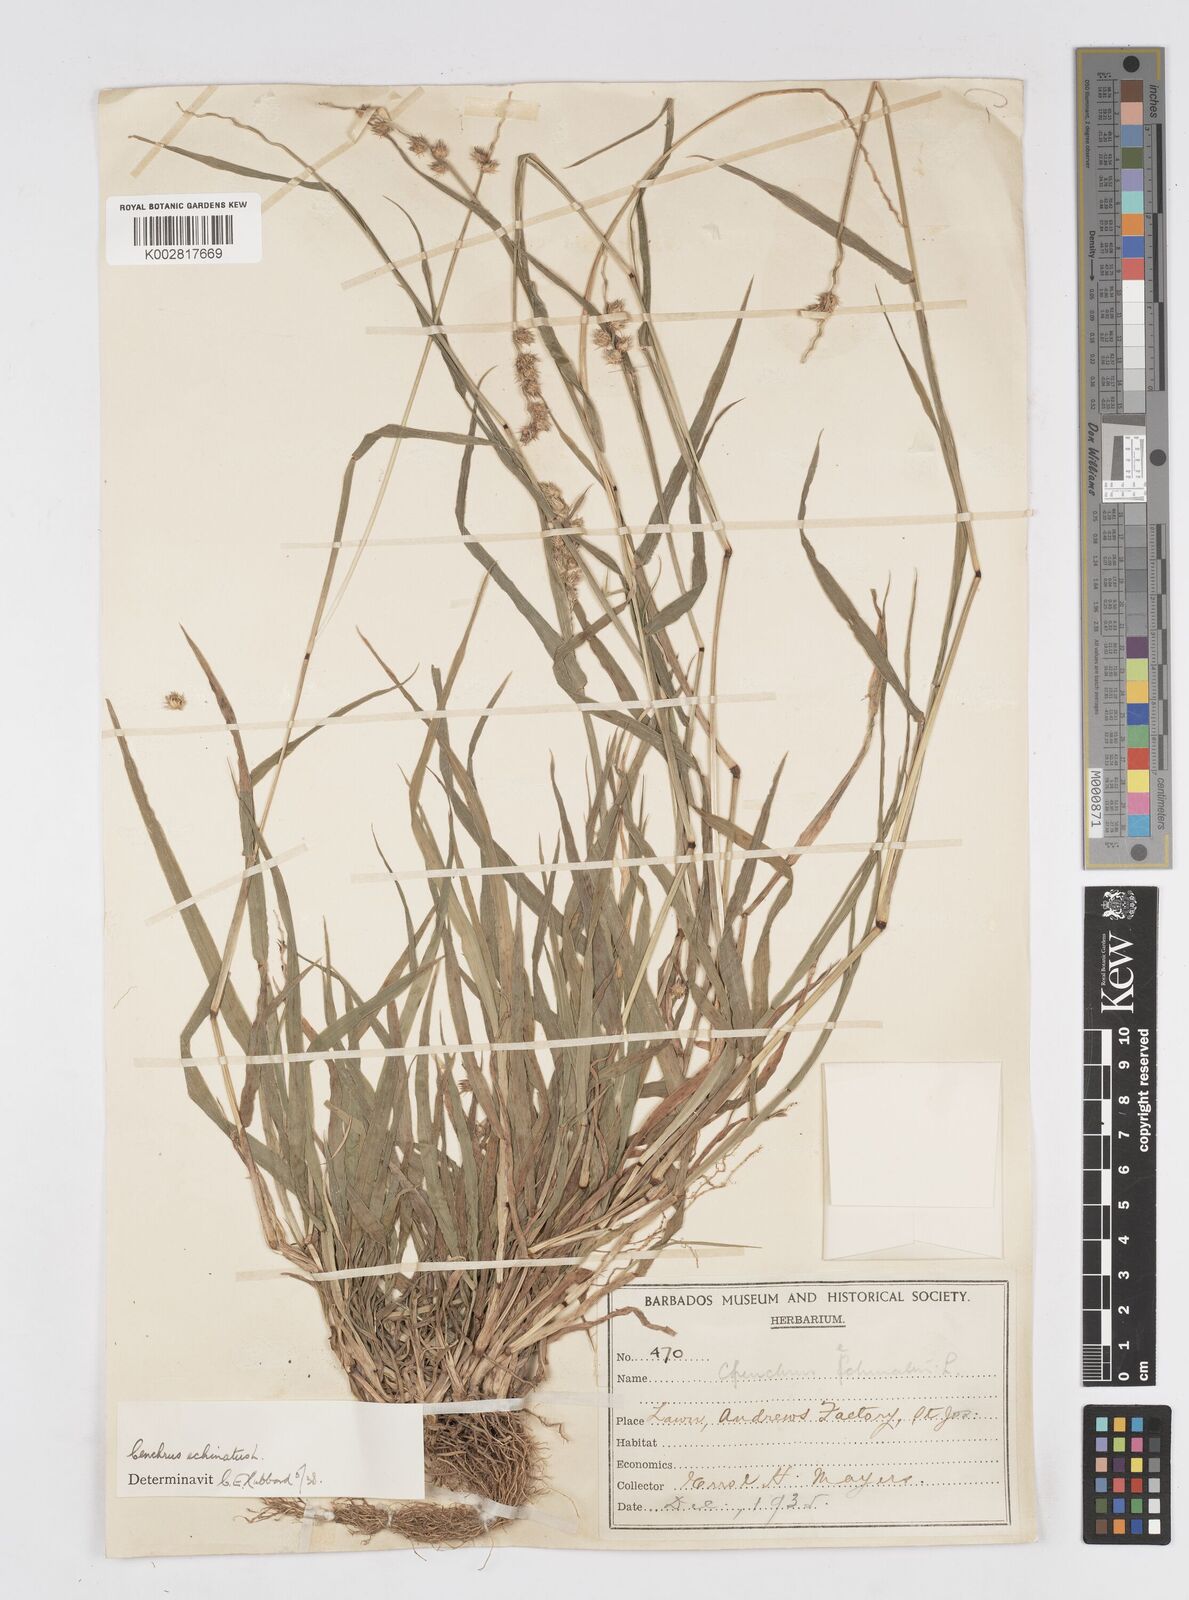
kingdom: Plantae
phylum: Tracheophyta
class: Liliopsida
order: Poales
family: Poaceae
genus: Cenchrus
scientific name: Cenchrus
